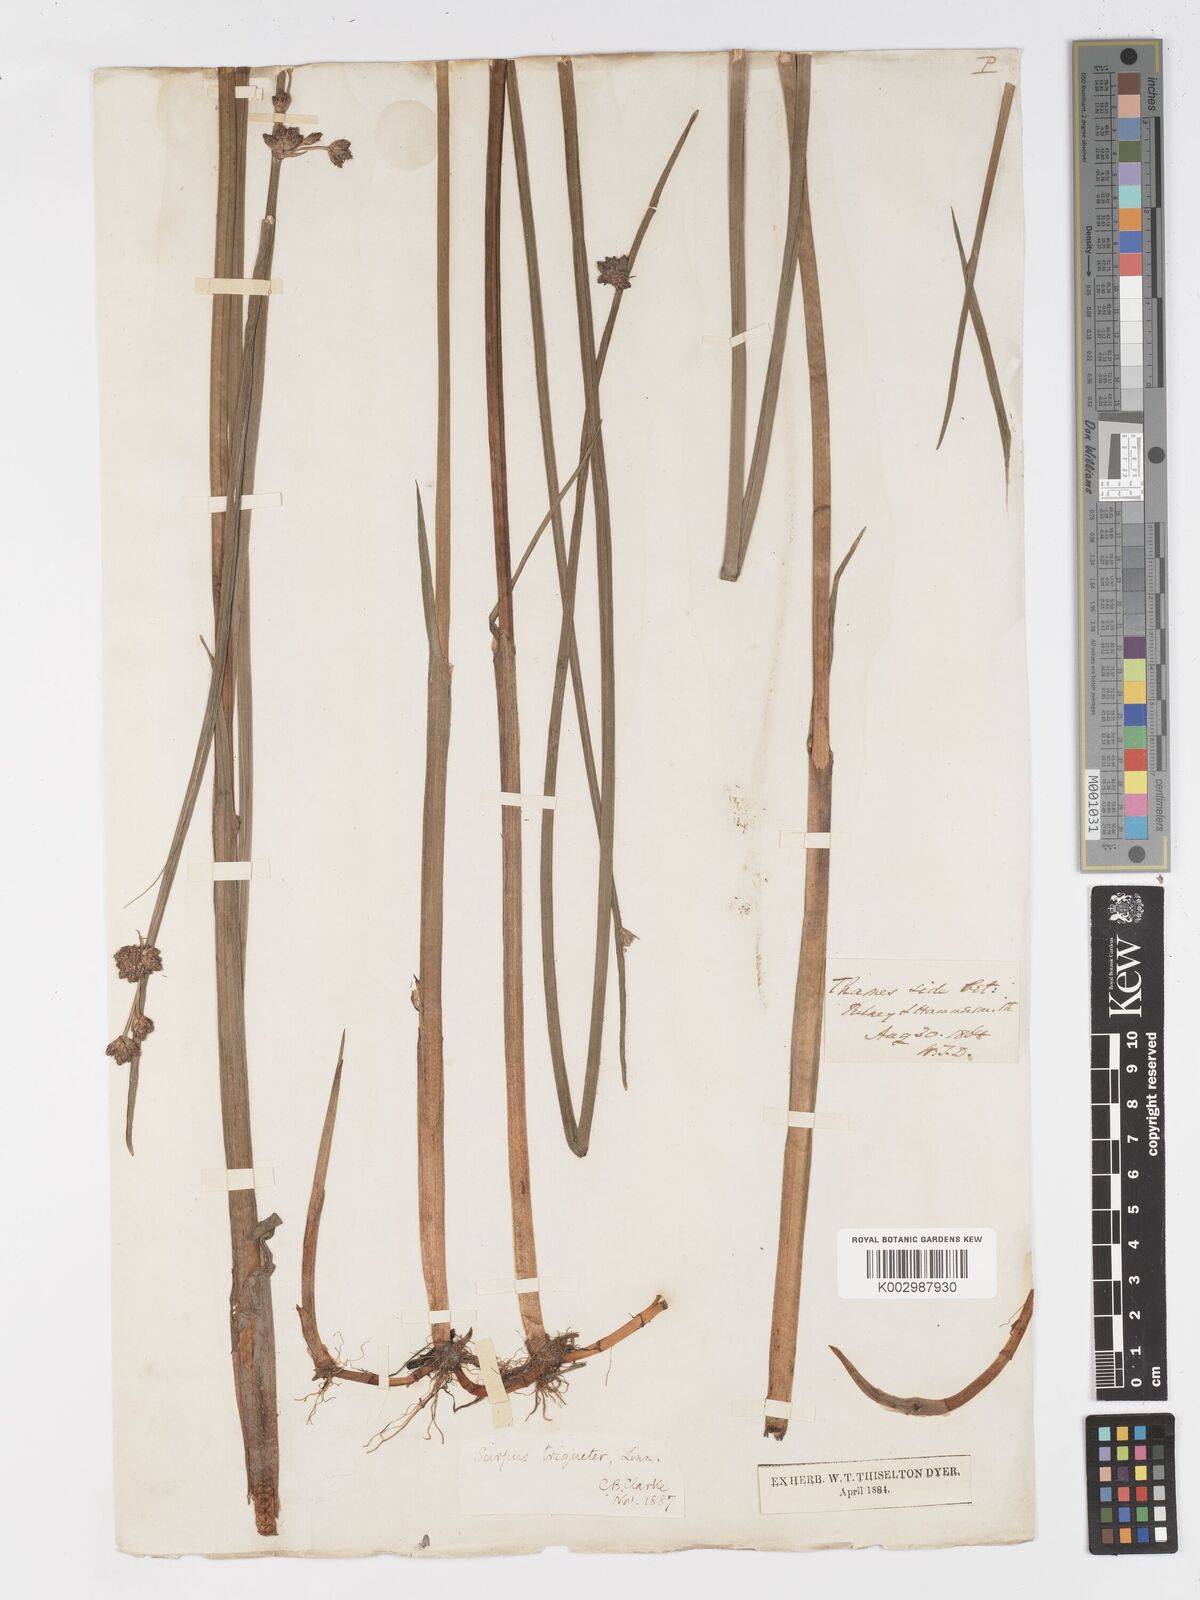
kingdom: Plantae
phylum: Tracheophyta
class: Liliopsida
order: Poales
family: Cyperaceae
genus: Schoenoplectus
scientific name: Schoenoplectus triqueter
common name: Triangular club-rush
